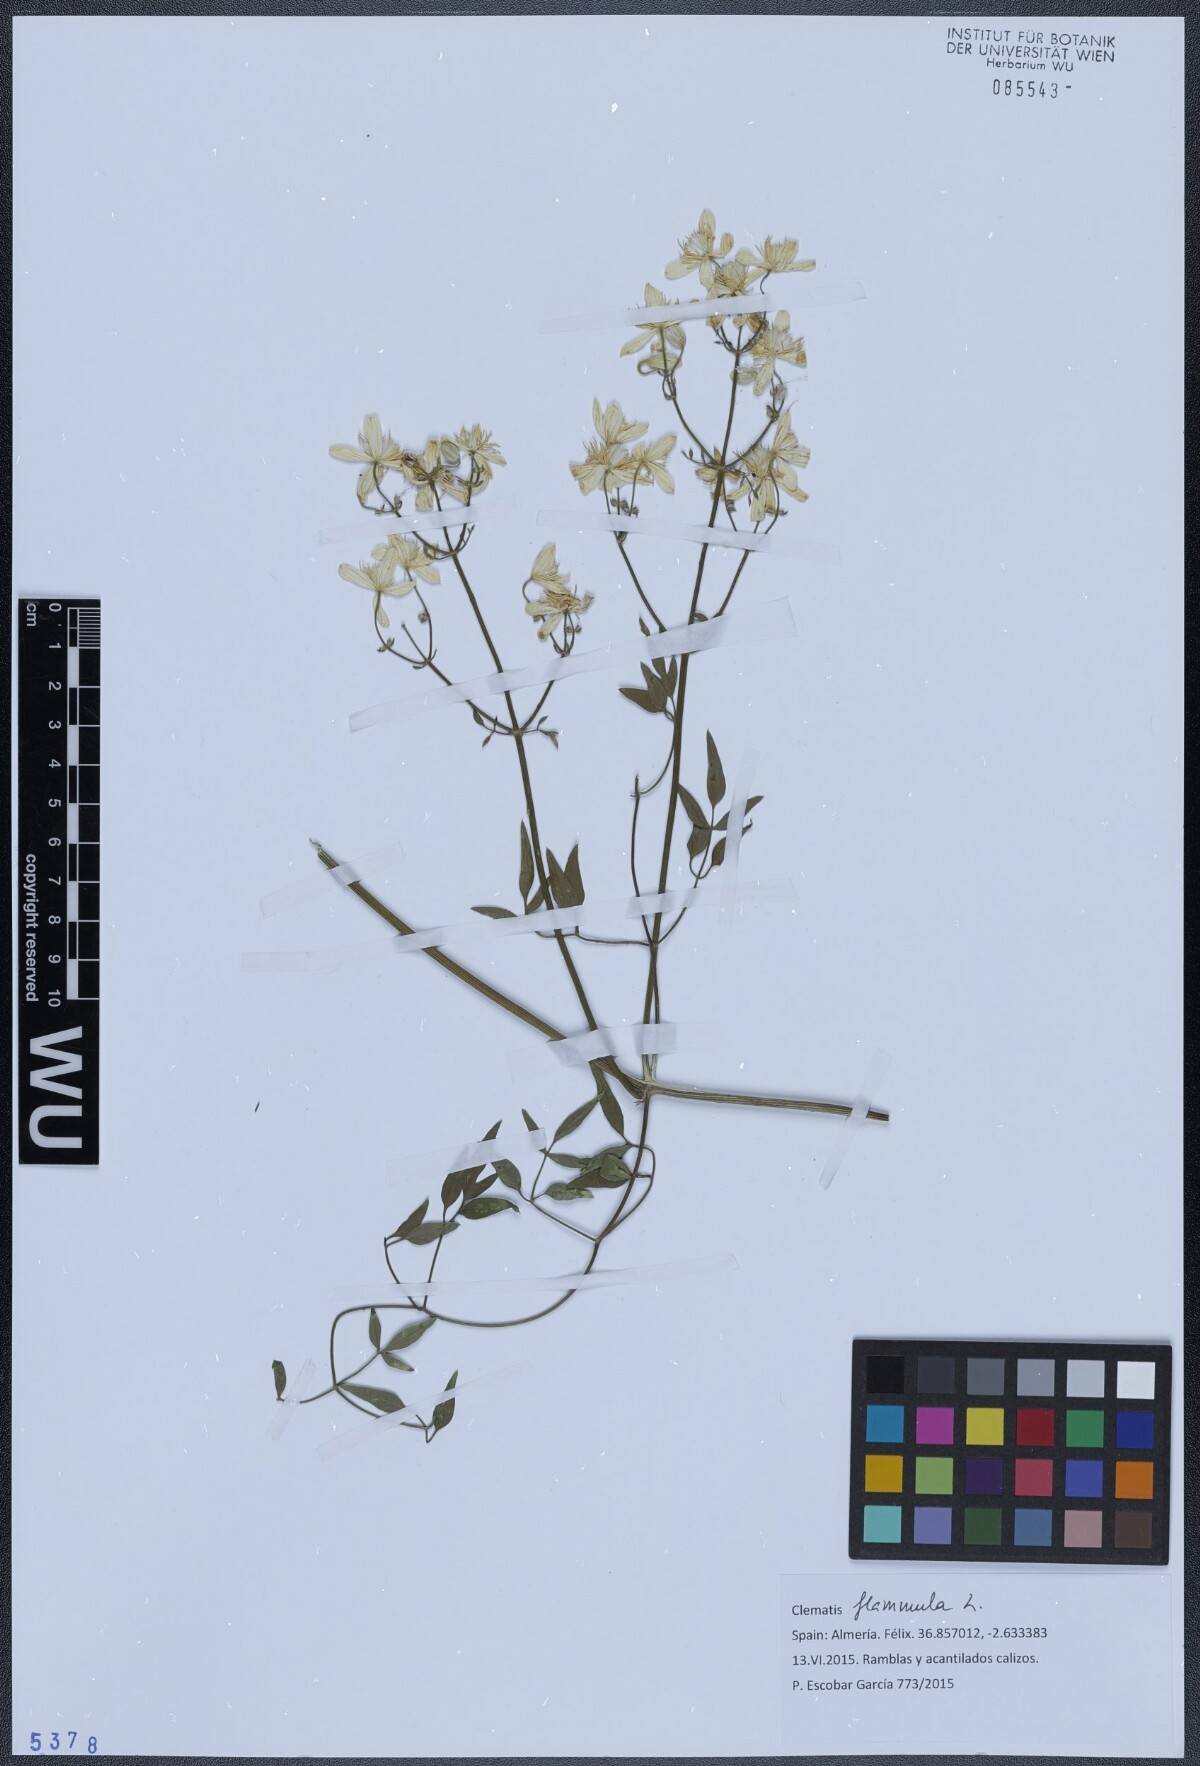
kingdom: Plantae
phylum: Tracheophyta
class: Magnoliopsida
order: Ranunculales
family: Ranunculaceae
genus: Clematis
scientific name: Clematis flammula
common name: Virgin's-bower
